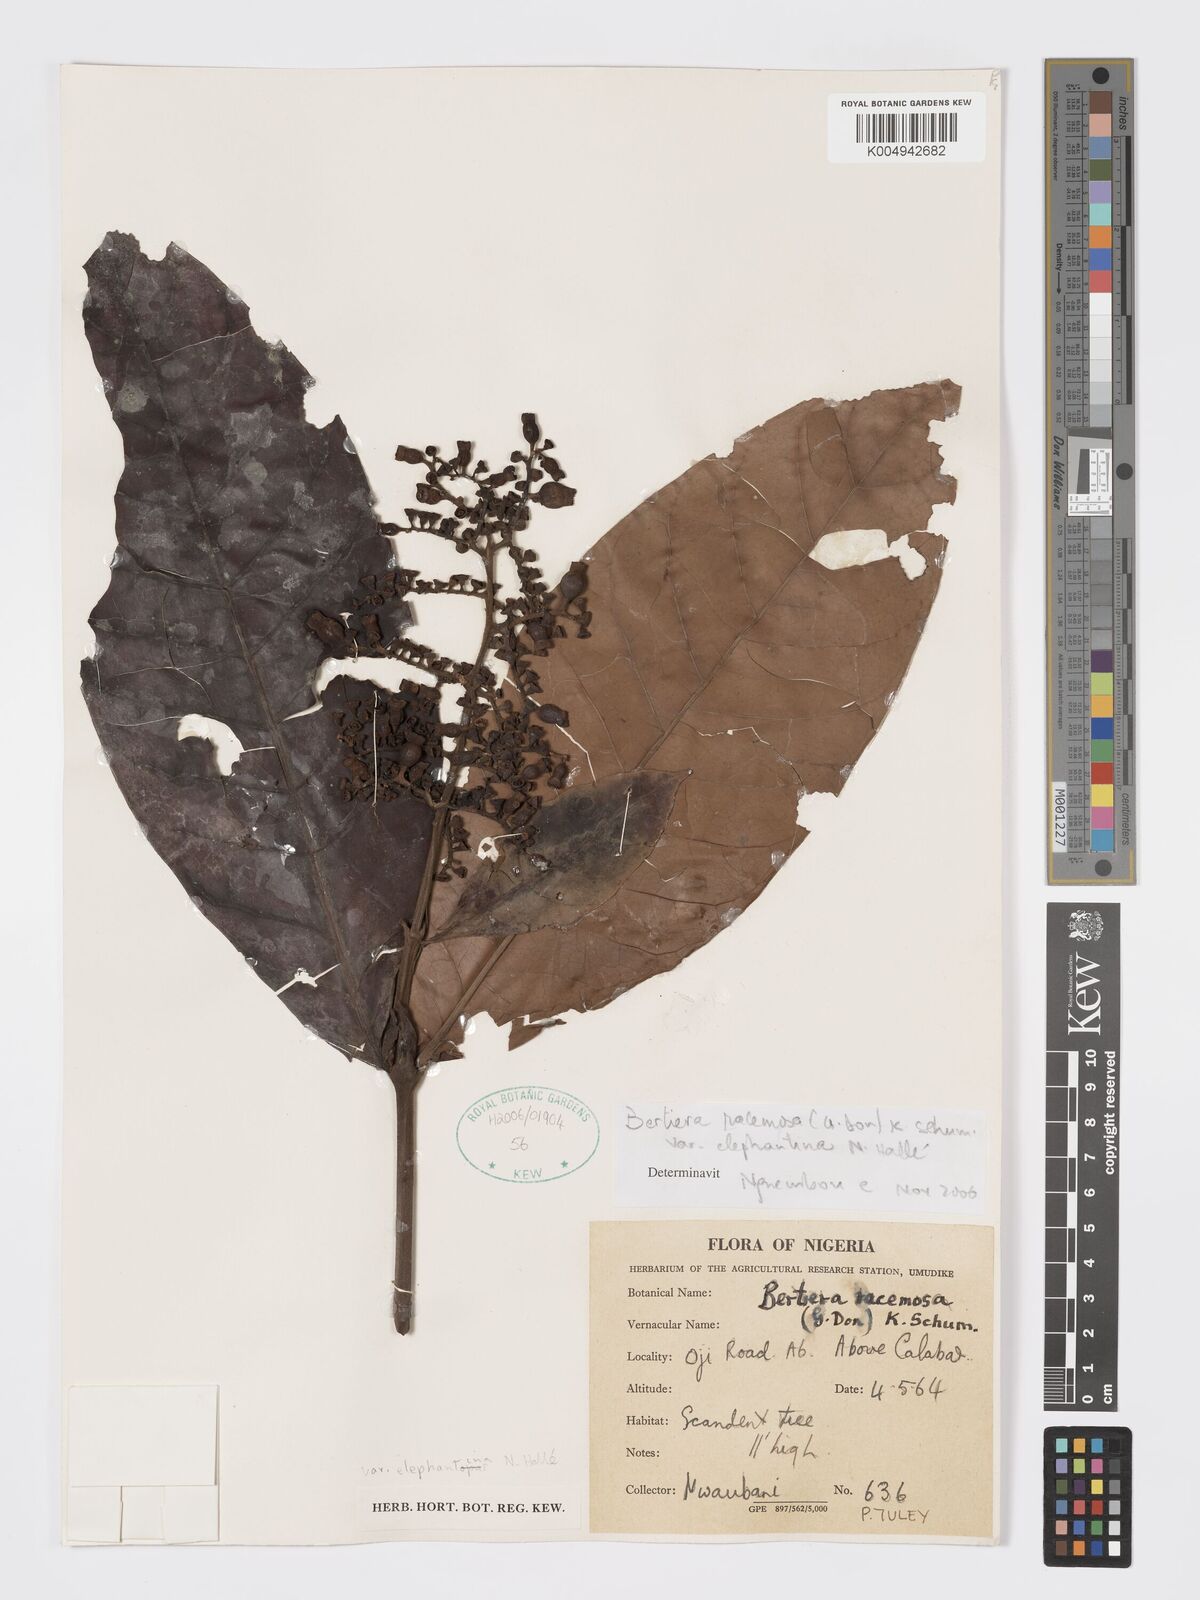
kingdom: Plantae
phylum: Tracheophyta
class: Magnoliopsida
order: Gentianales
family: Rubiaceae
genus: Bertiera
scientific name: Bertiera racemosa
